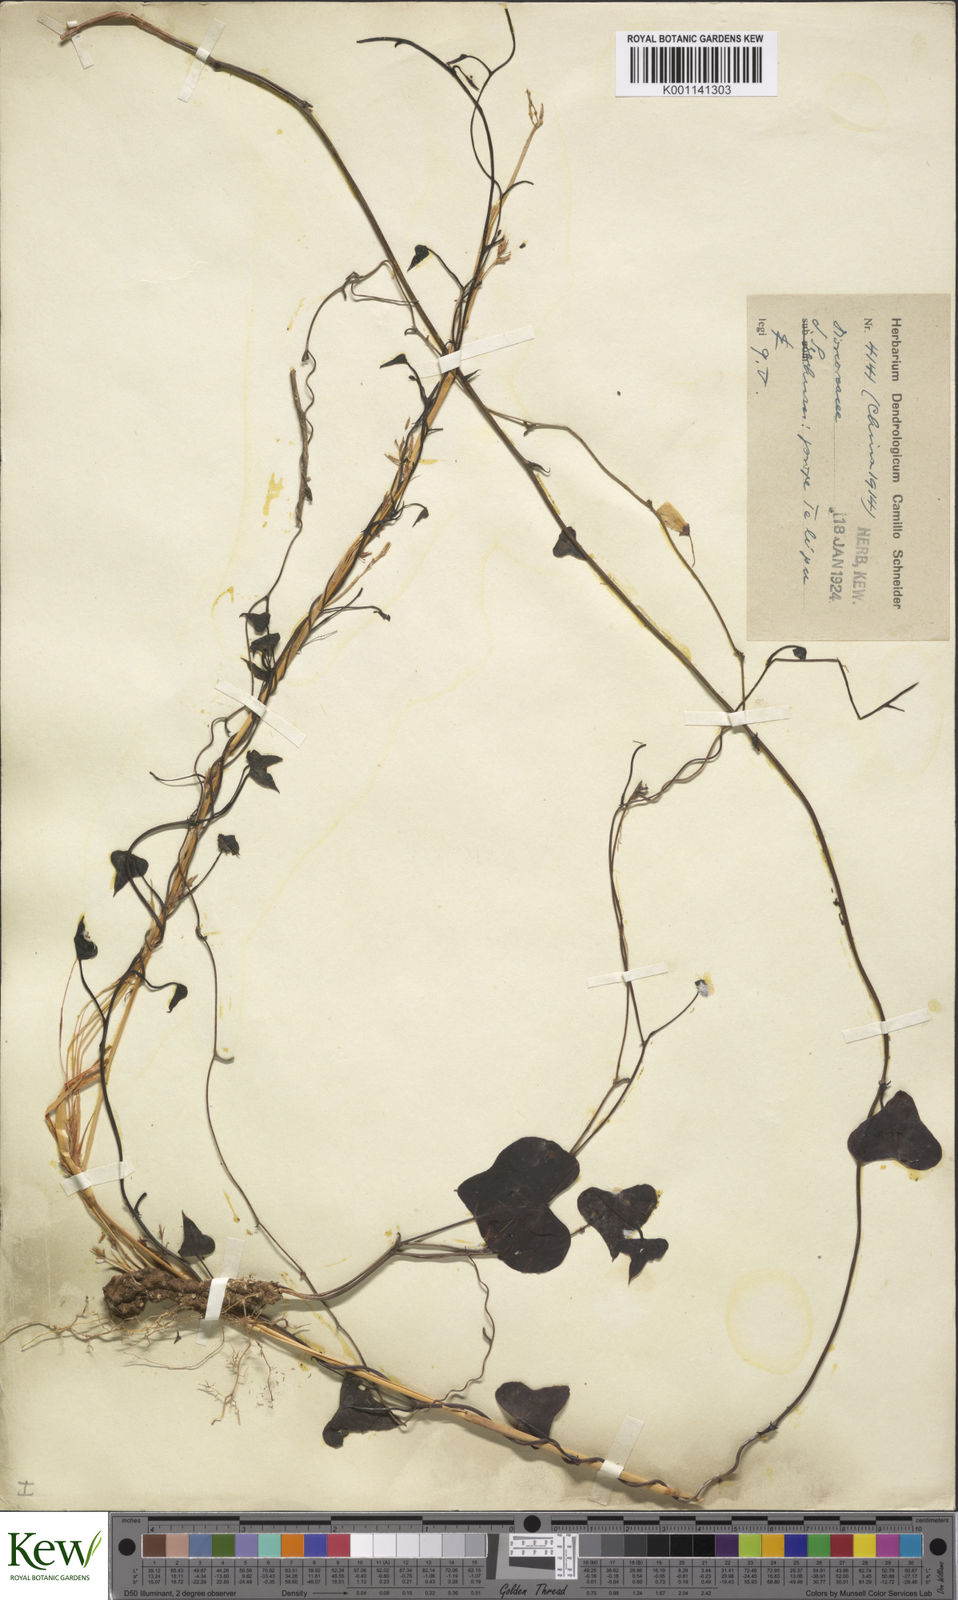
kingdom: Plantae
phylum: Tracheophyta
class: Liliopsida
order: Dioscoreales
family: Dioscoreaceae
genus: Dioscorea
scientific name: Dioscorea zingiberensis
